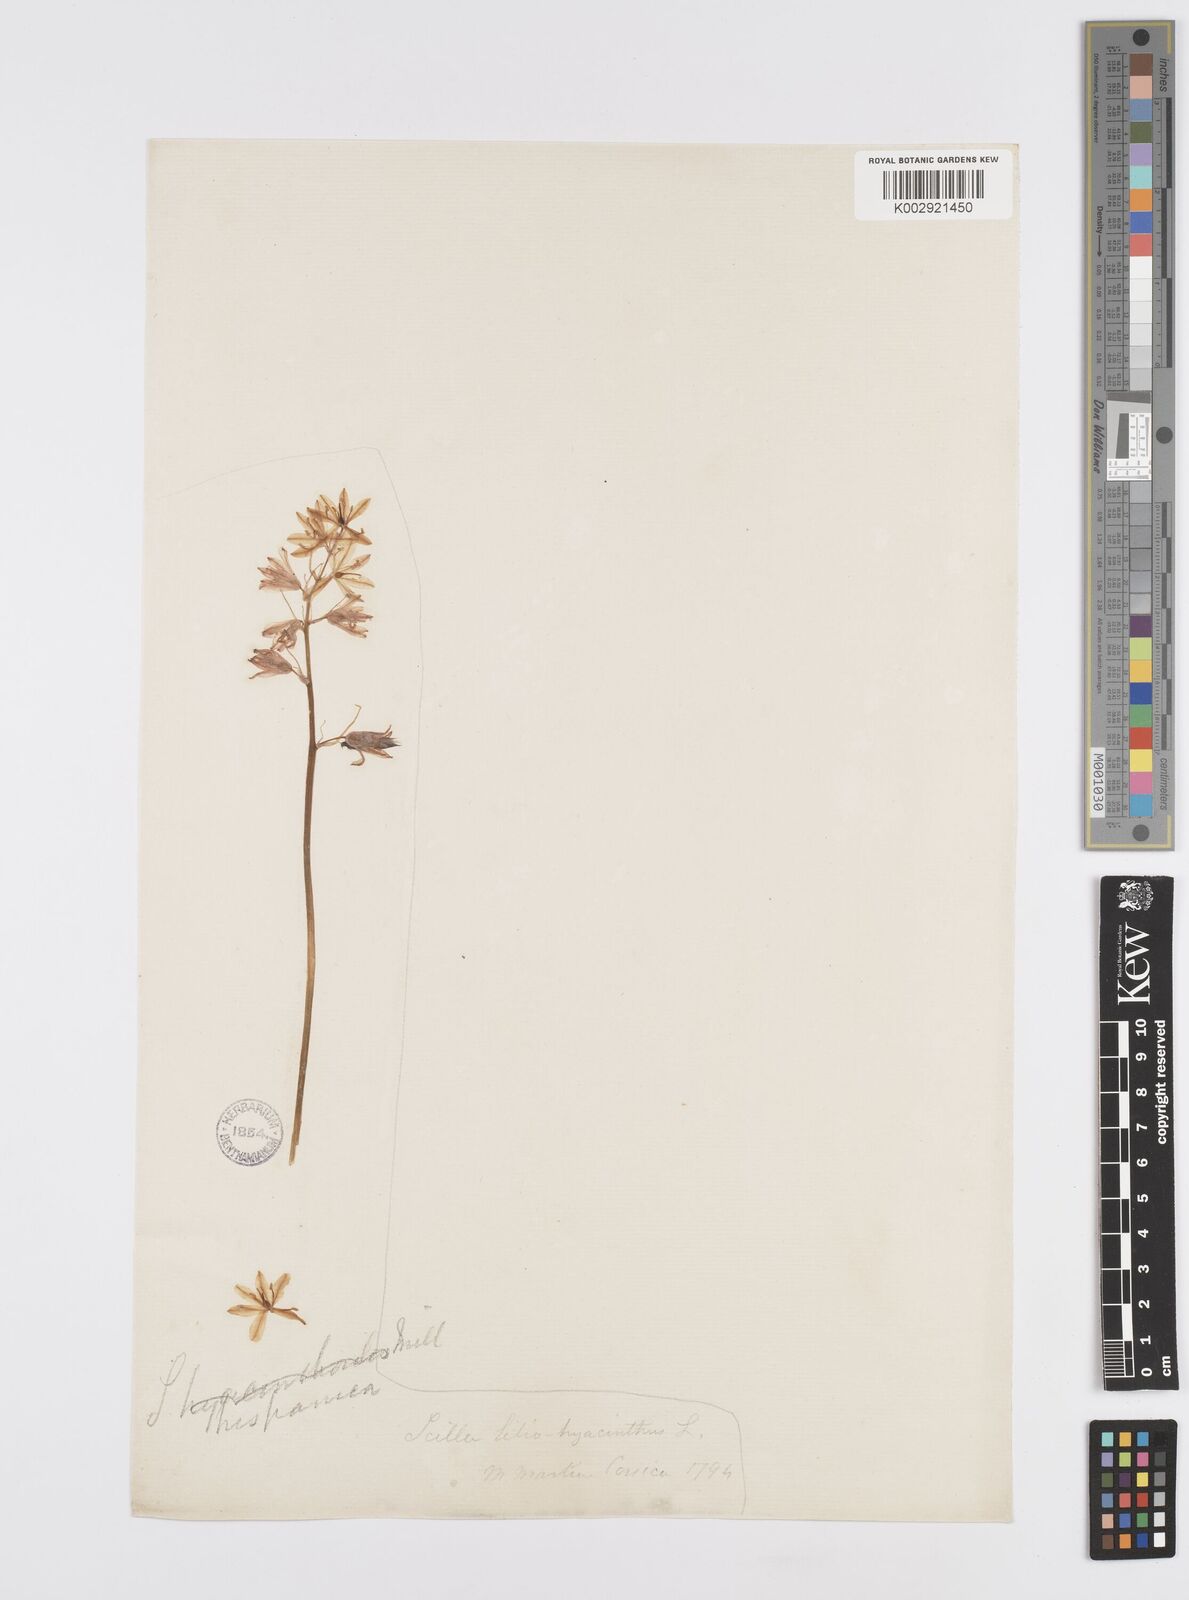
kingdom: Plantae
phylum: Tracheophyta
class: Liliopsida
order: Asparagales
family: Asparagaceae
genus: Hyacinthoides
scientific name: Hyacinthoides hispanica
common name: Spanish bluebell
